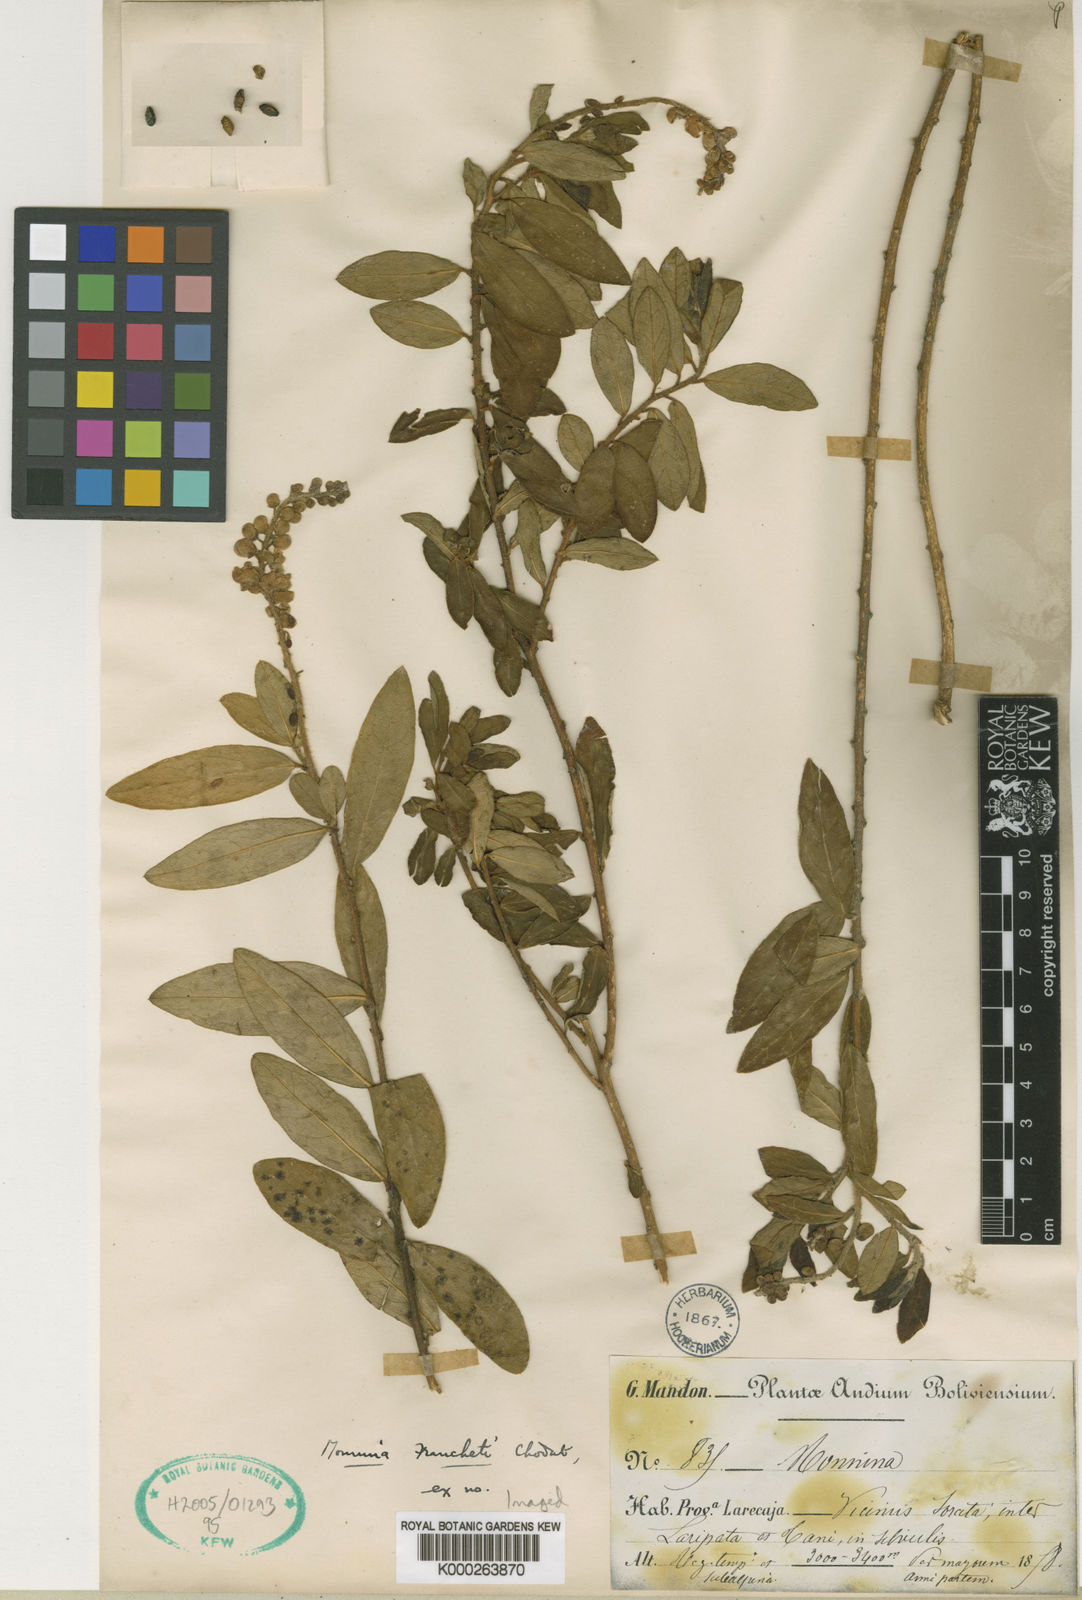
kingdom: Plantae
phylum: Tracheophyta
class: Magnoliopsida
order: Fabales
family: Polygalaceae
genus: Monnina
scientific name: Monnina franchetii
